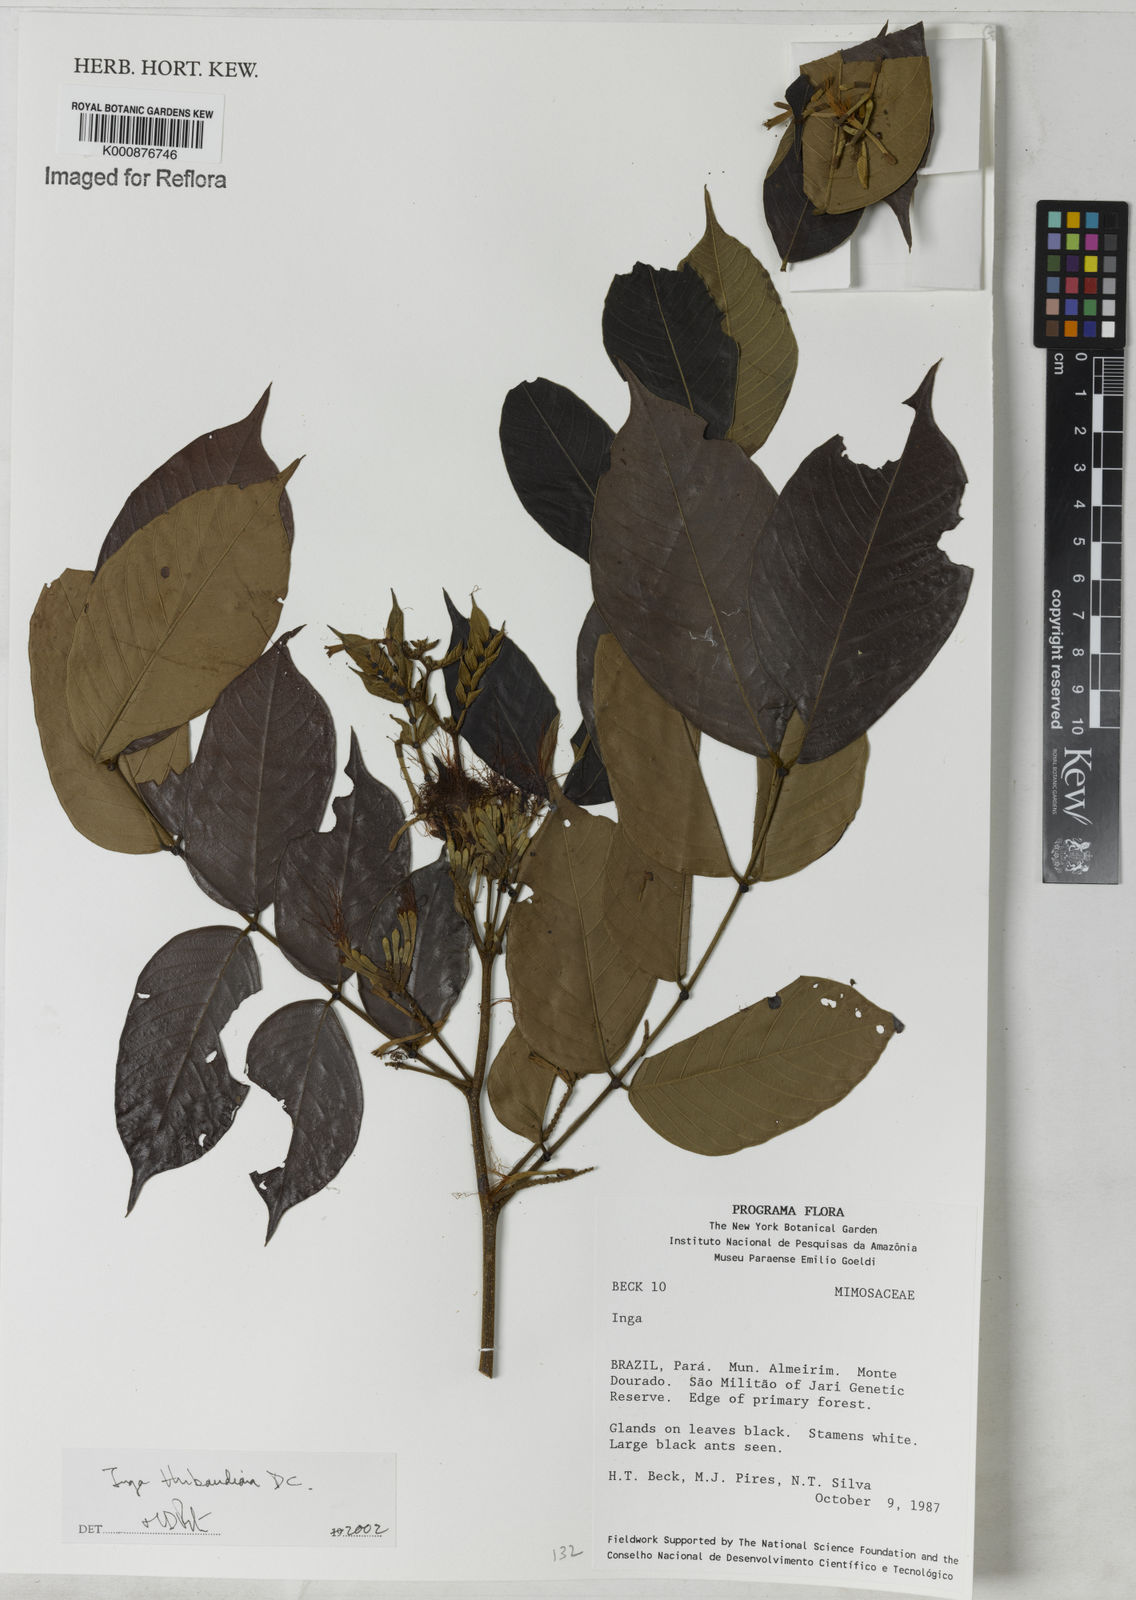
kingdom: Plantae
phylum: Tracheophyta
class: Magnoliopsida
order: Fabales
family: Fabaceae
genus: Inga
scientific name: Inga thibaudiana
